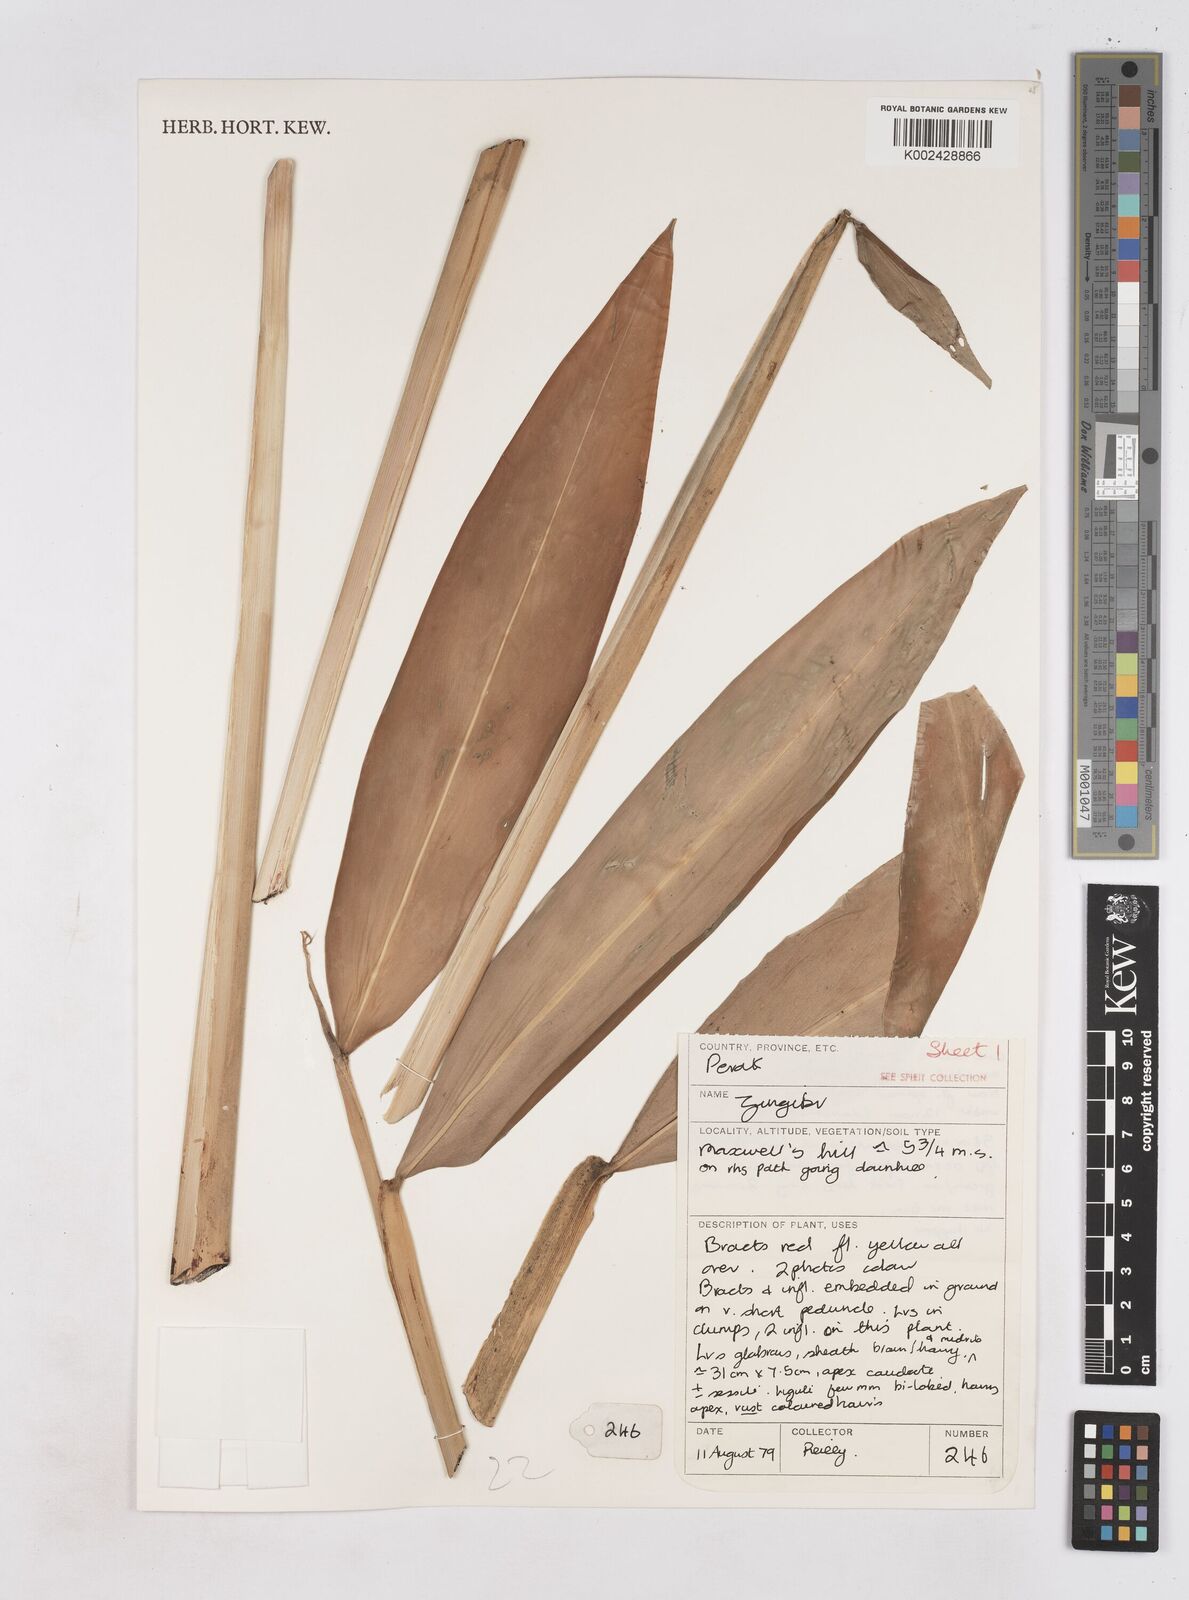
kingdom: Plantae
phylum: Tracheophyta
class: Liliopsida
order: Zingiberales
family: Zingiberaceae
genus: Zingiber
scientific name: Zingiber
